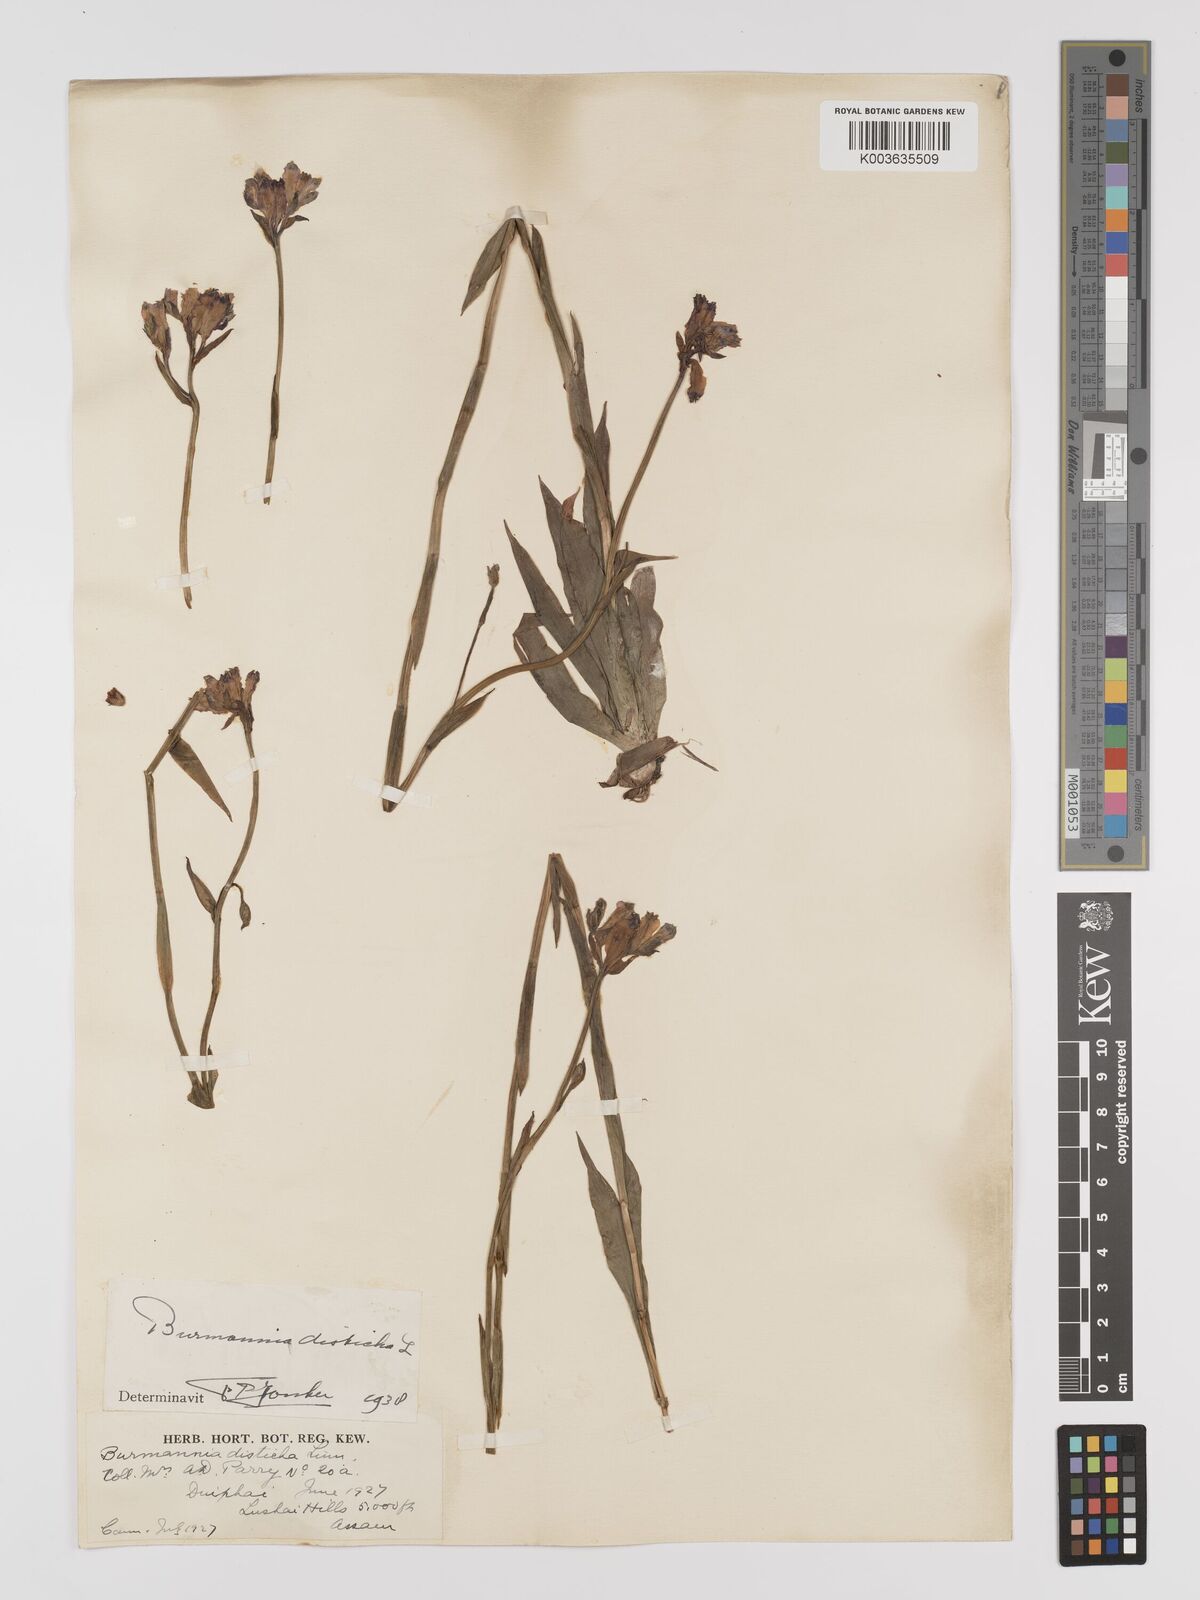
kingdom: Plantae
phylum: Tracheophyta
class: Liliopsida
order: Dioscoreales
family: Burmanniaceae
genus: Burmannia
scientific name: Burmannia disticha
